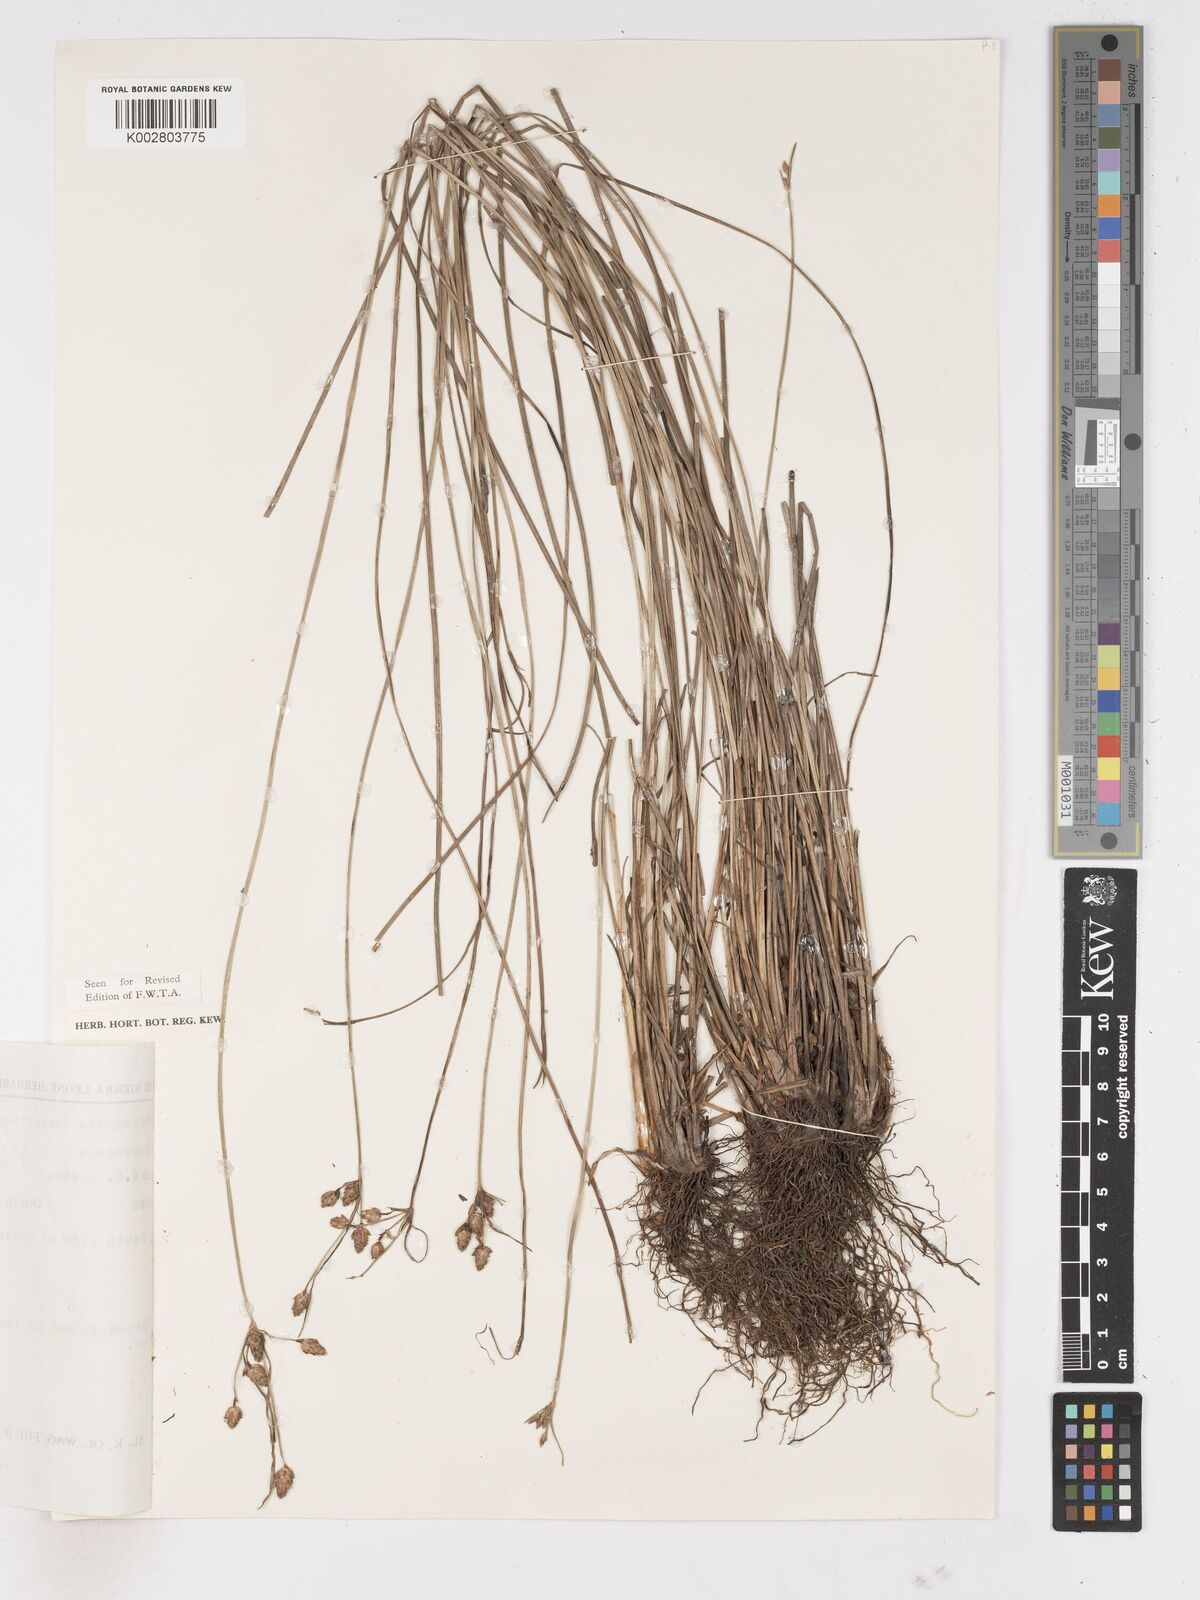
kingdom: Plantae
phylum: Tracheophyta
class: Liliopsida
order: Poales
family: Cyperaceae
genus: Fimbristylis
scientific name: Fimbristylis ferruginea
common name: West indian fimbry
